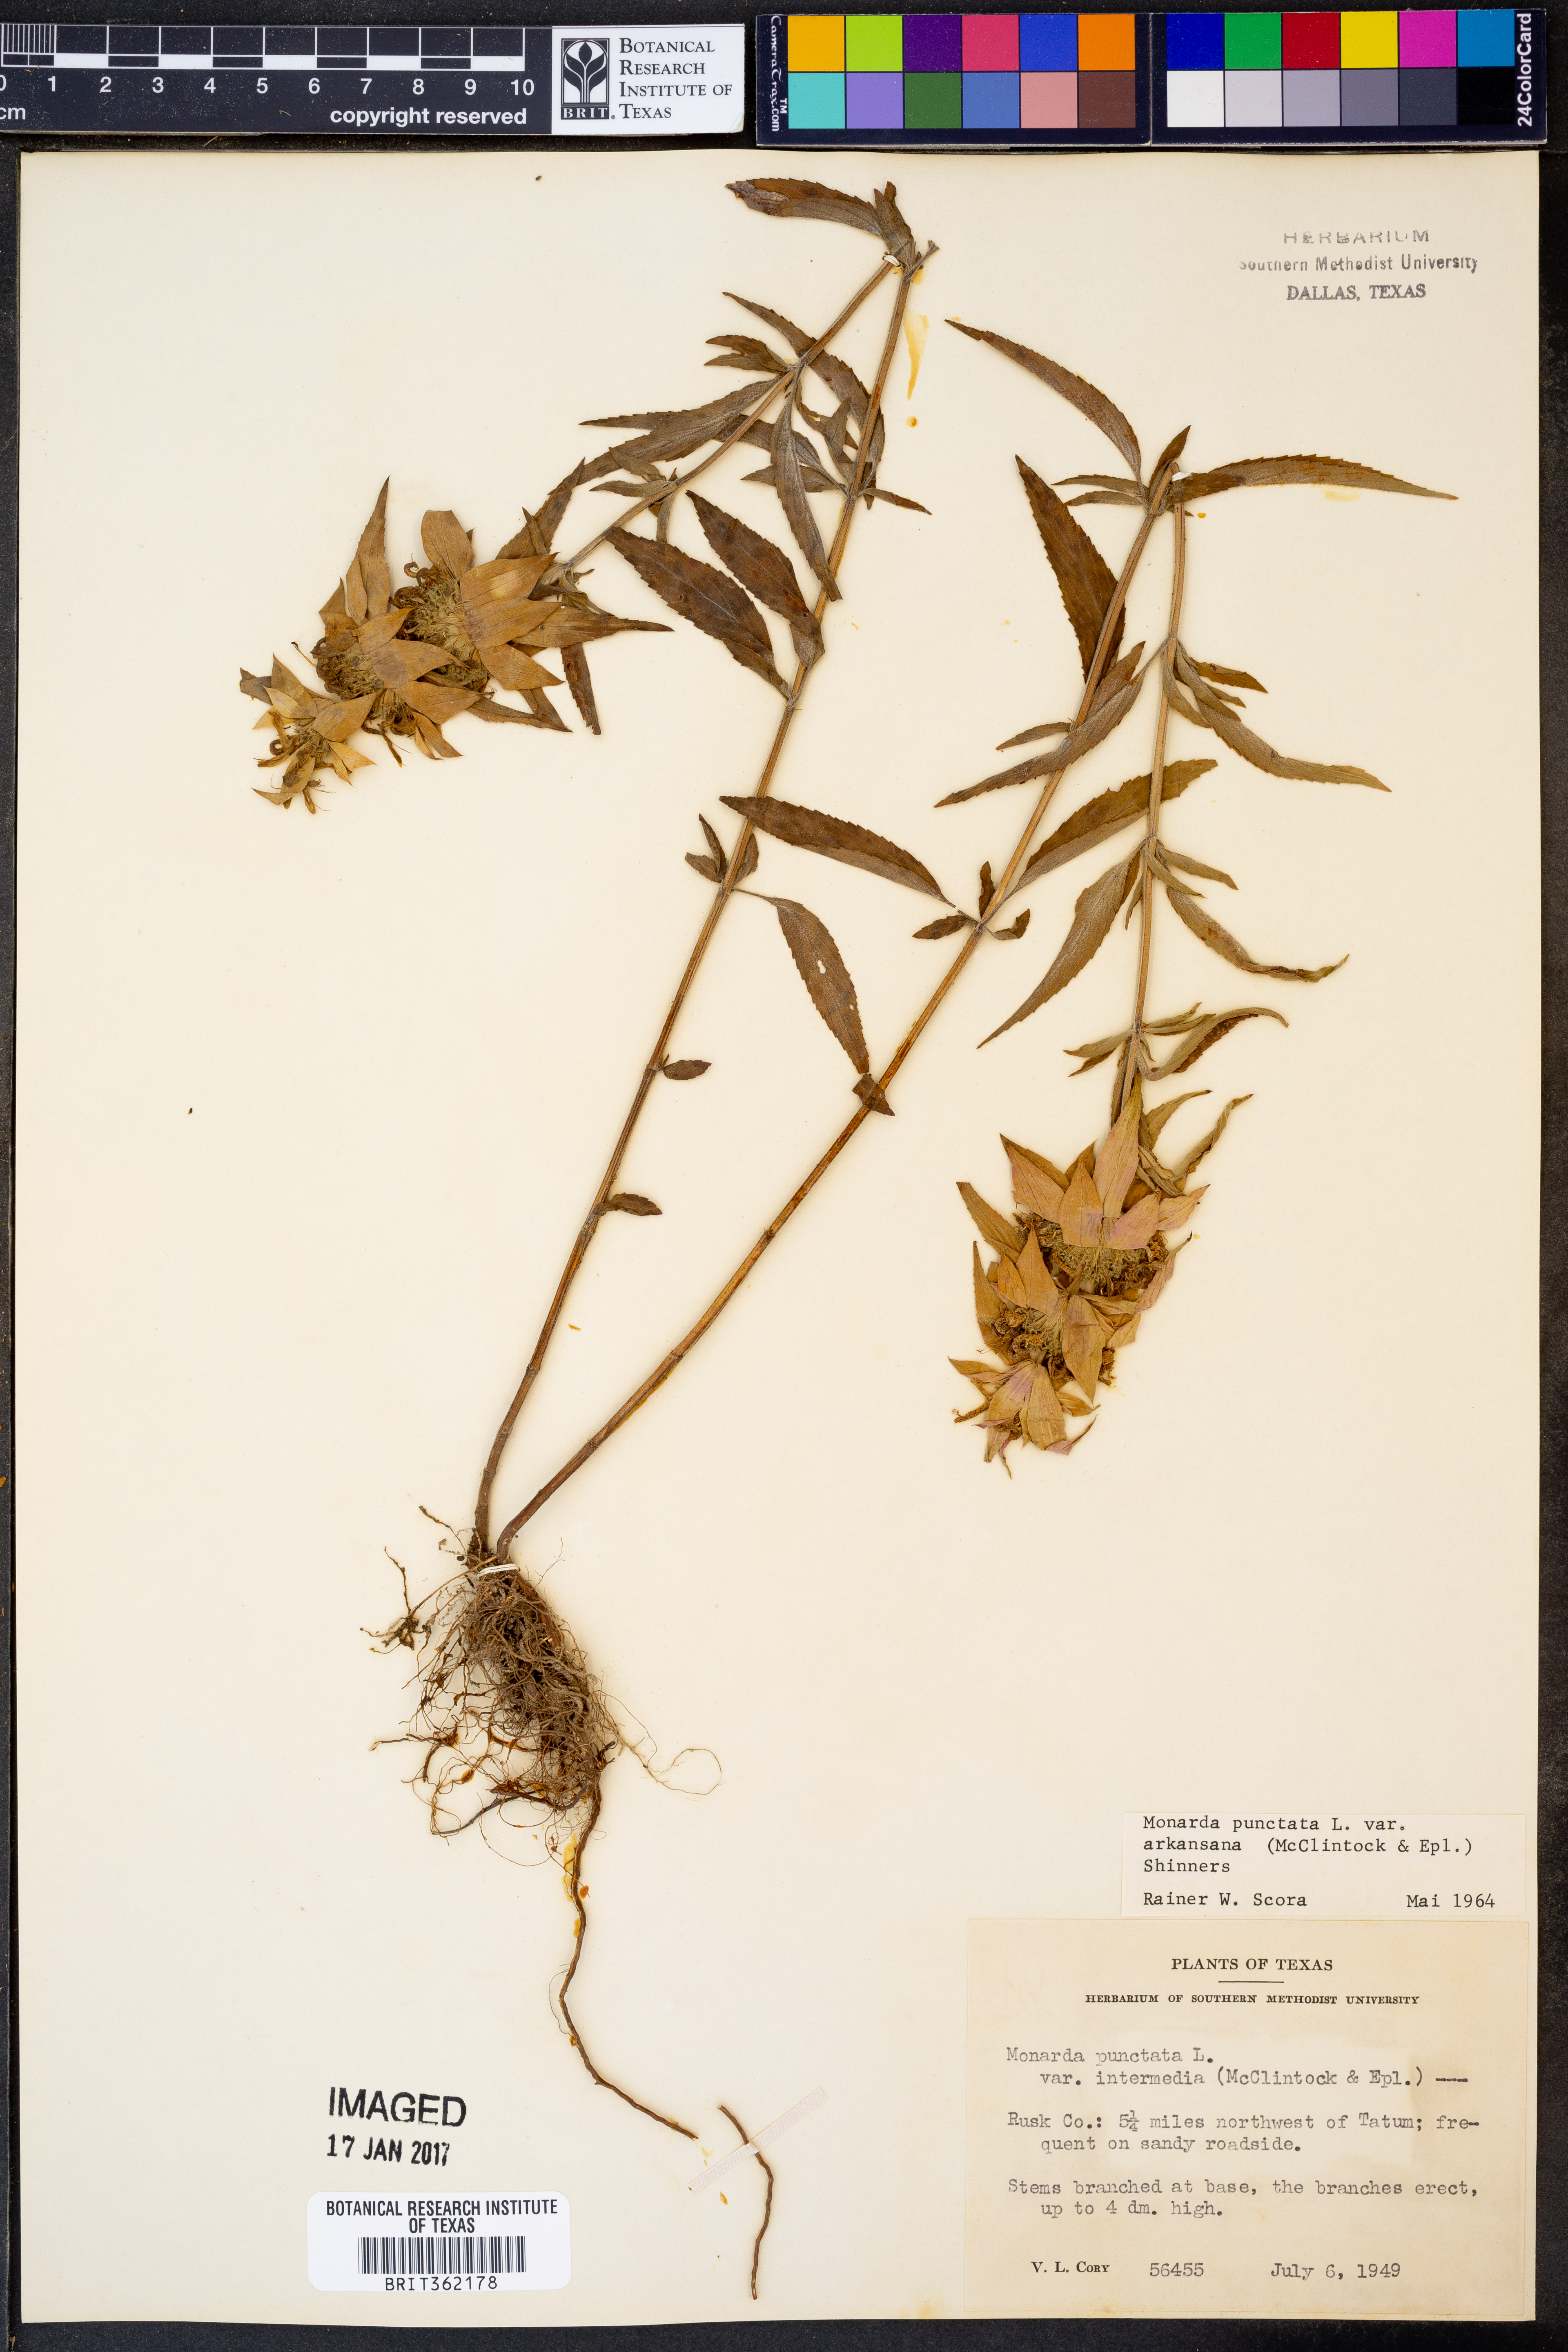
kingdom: Plantae
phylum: Tracheophyta
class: Magnoliopsida
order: Lamiales
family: Lamiaceae
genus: Monarda
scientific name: Monarda punctata
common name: Dotted monarda
